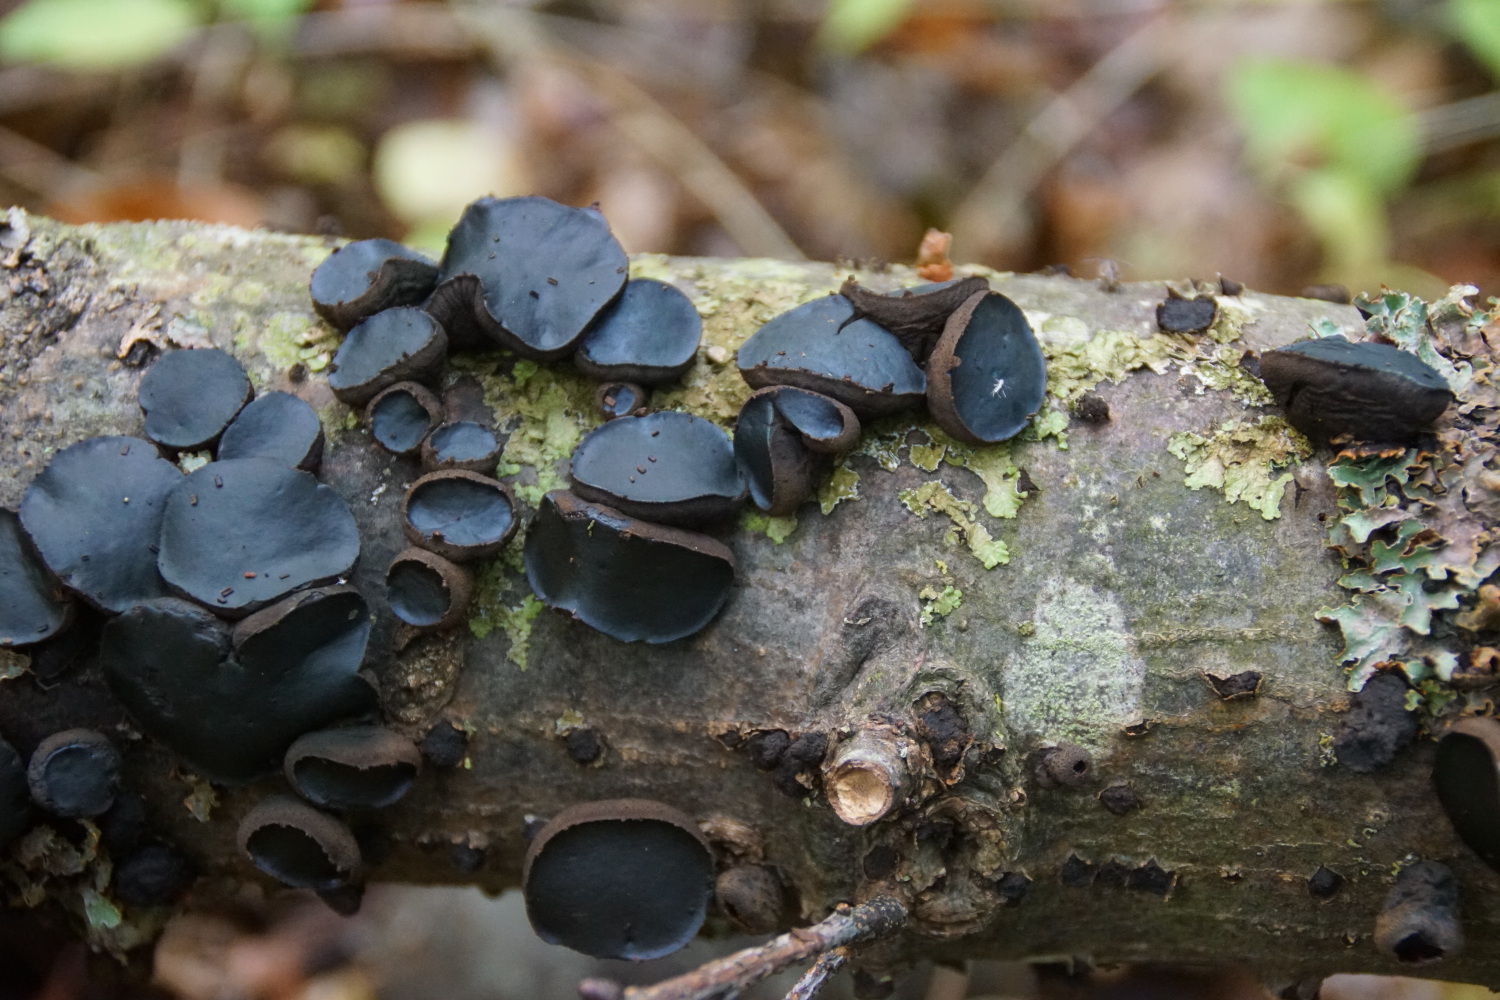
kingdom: Fungi
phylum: Ascomycota
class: Leotiomycetes
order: Phacidiales
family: Phacidiaceae
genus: Bulgaria
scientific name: Bulgaria inquinans
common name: afsmittende topsvamp
